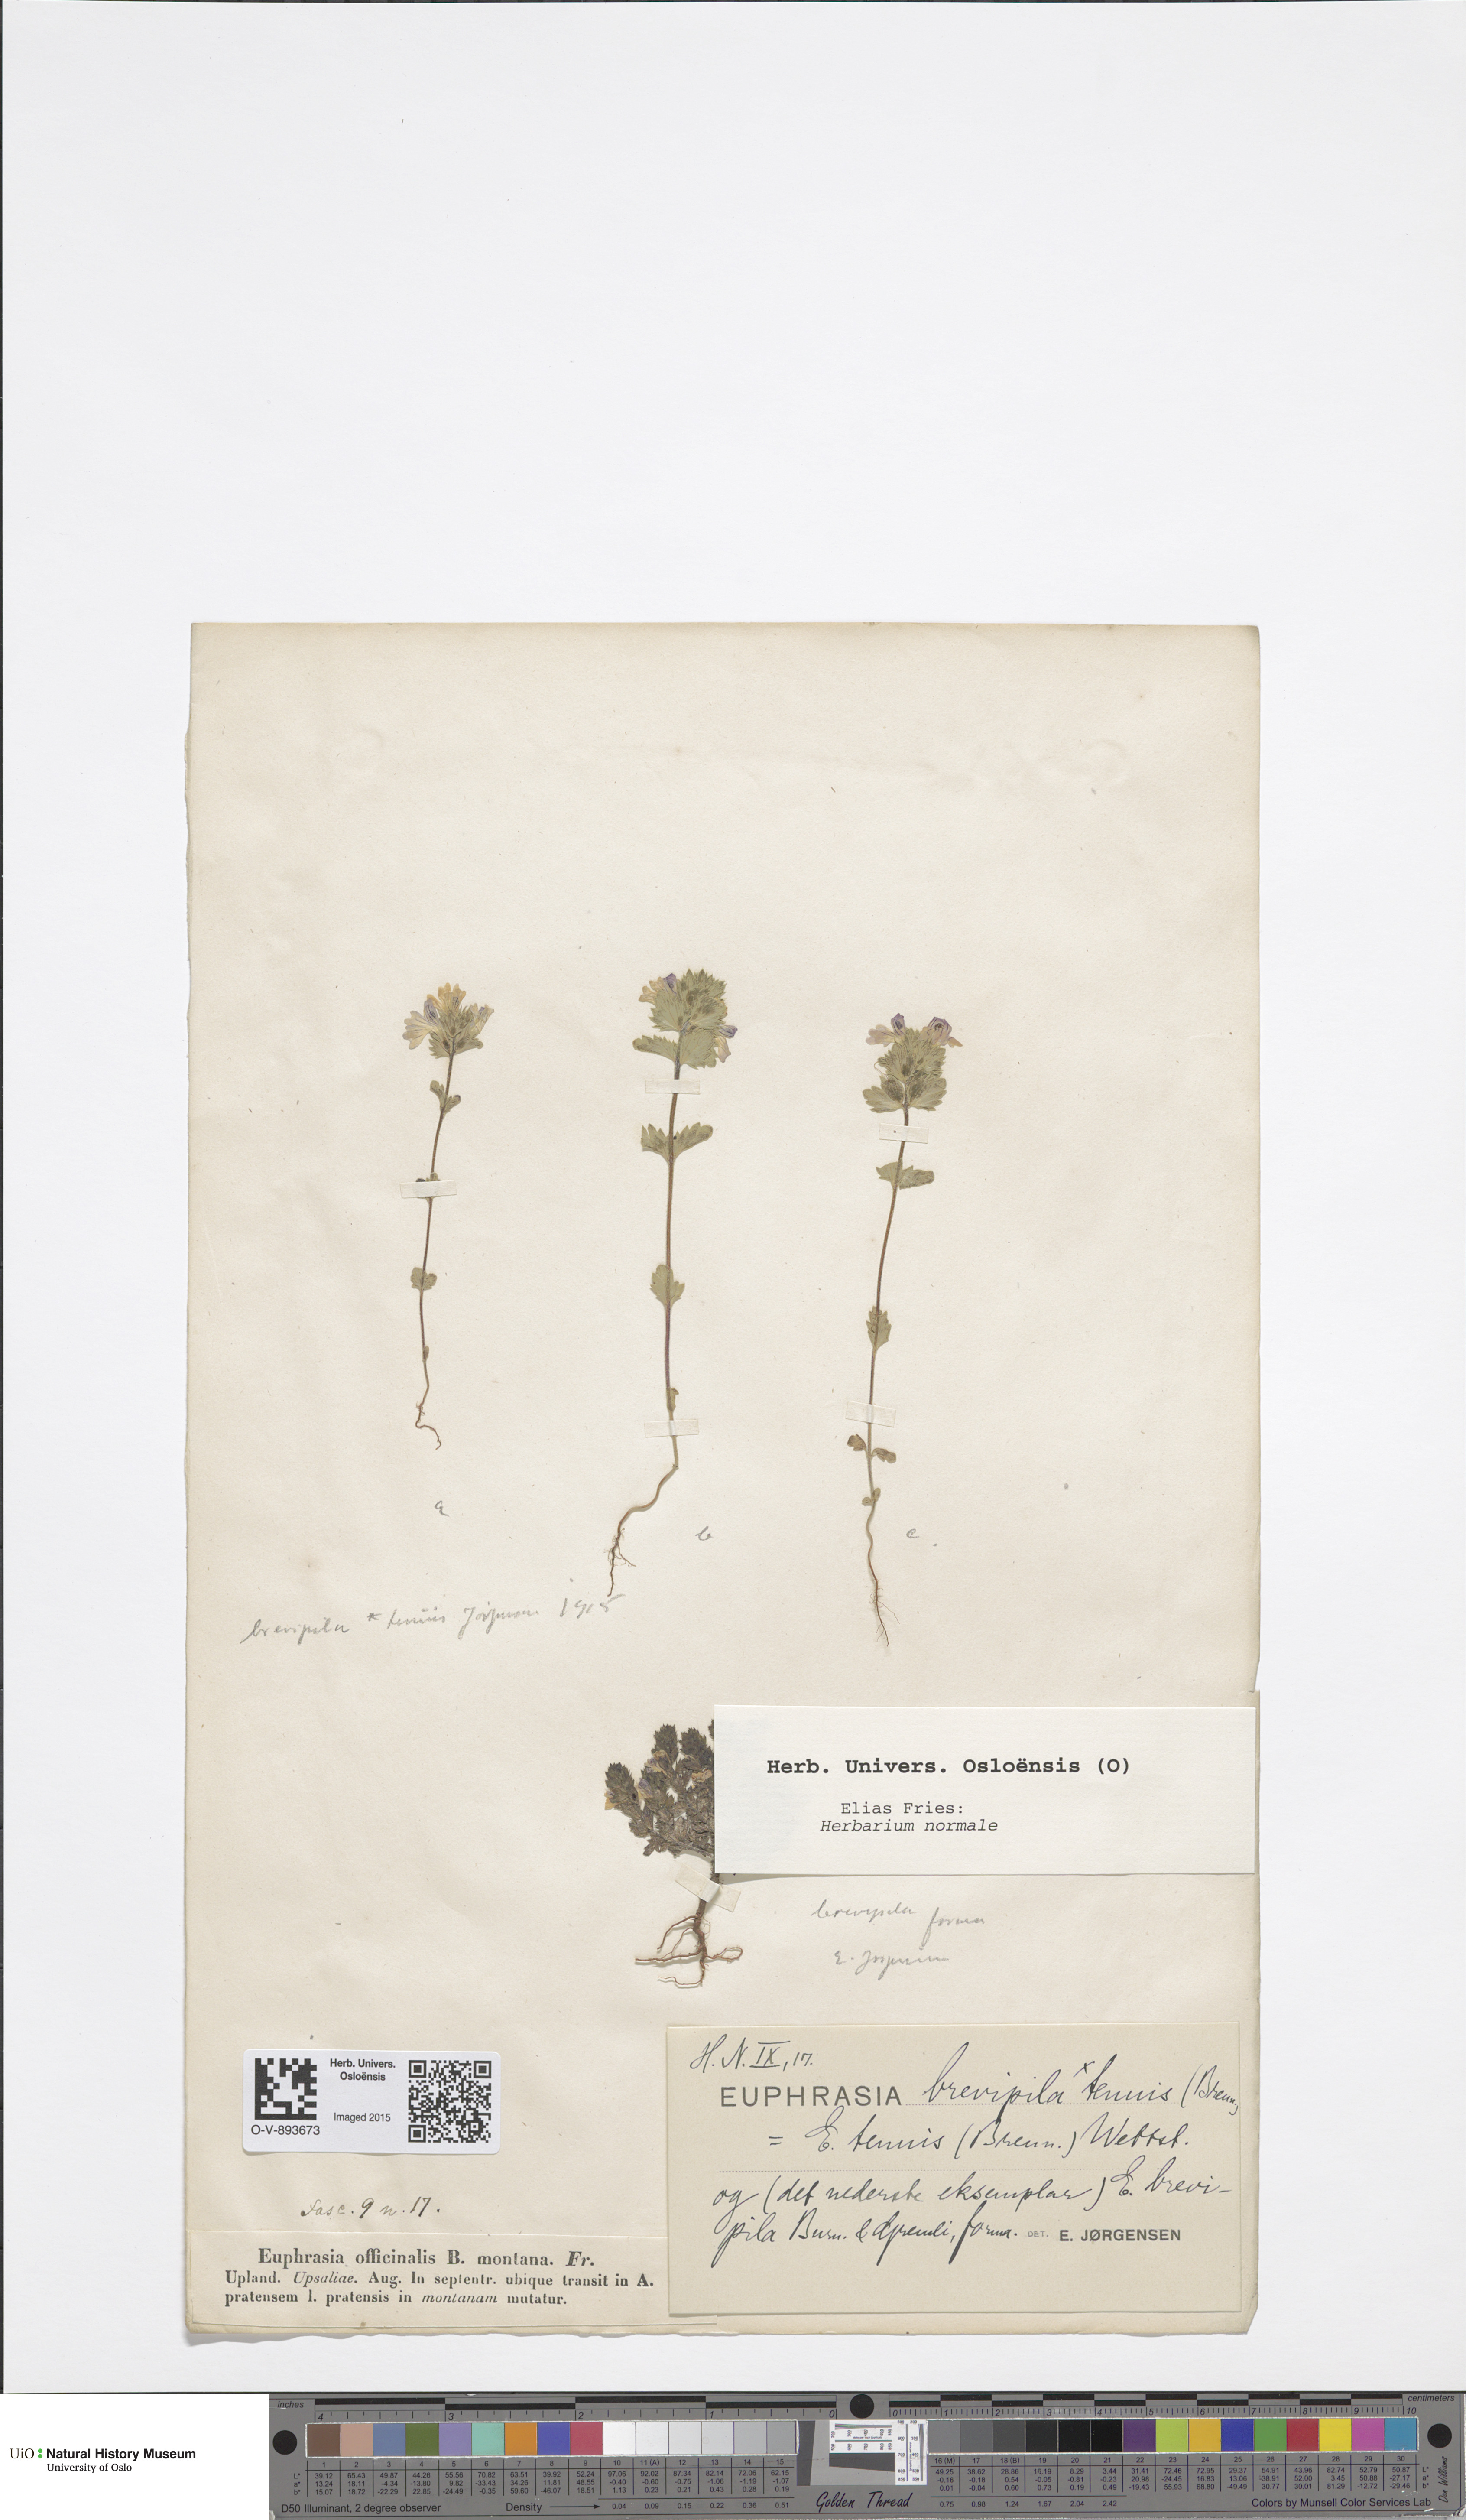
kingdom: Plantae
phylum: Tracheophyta
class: Magnoliopsida
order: Lamiales
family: Orobanchaceae
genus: Euphrasia
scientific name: Euphrasia vernalis
